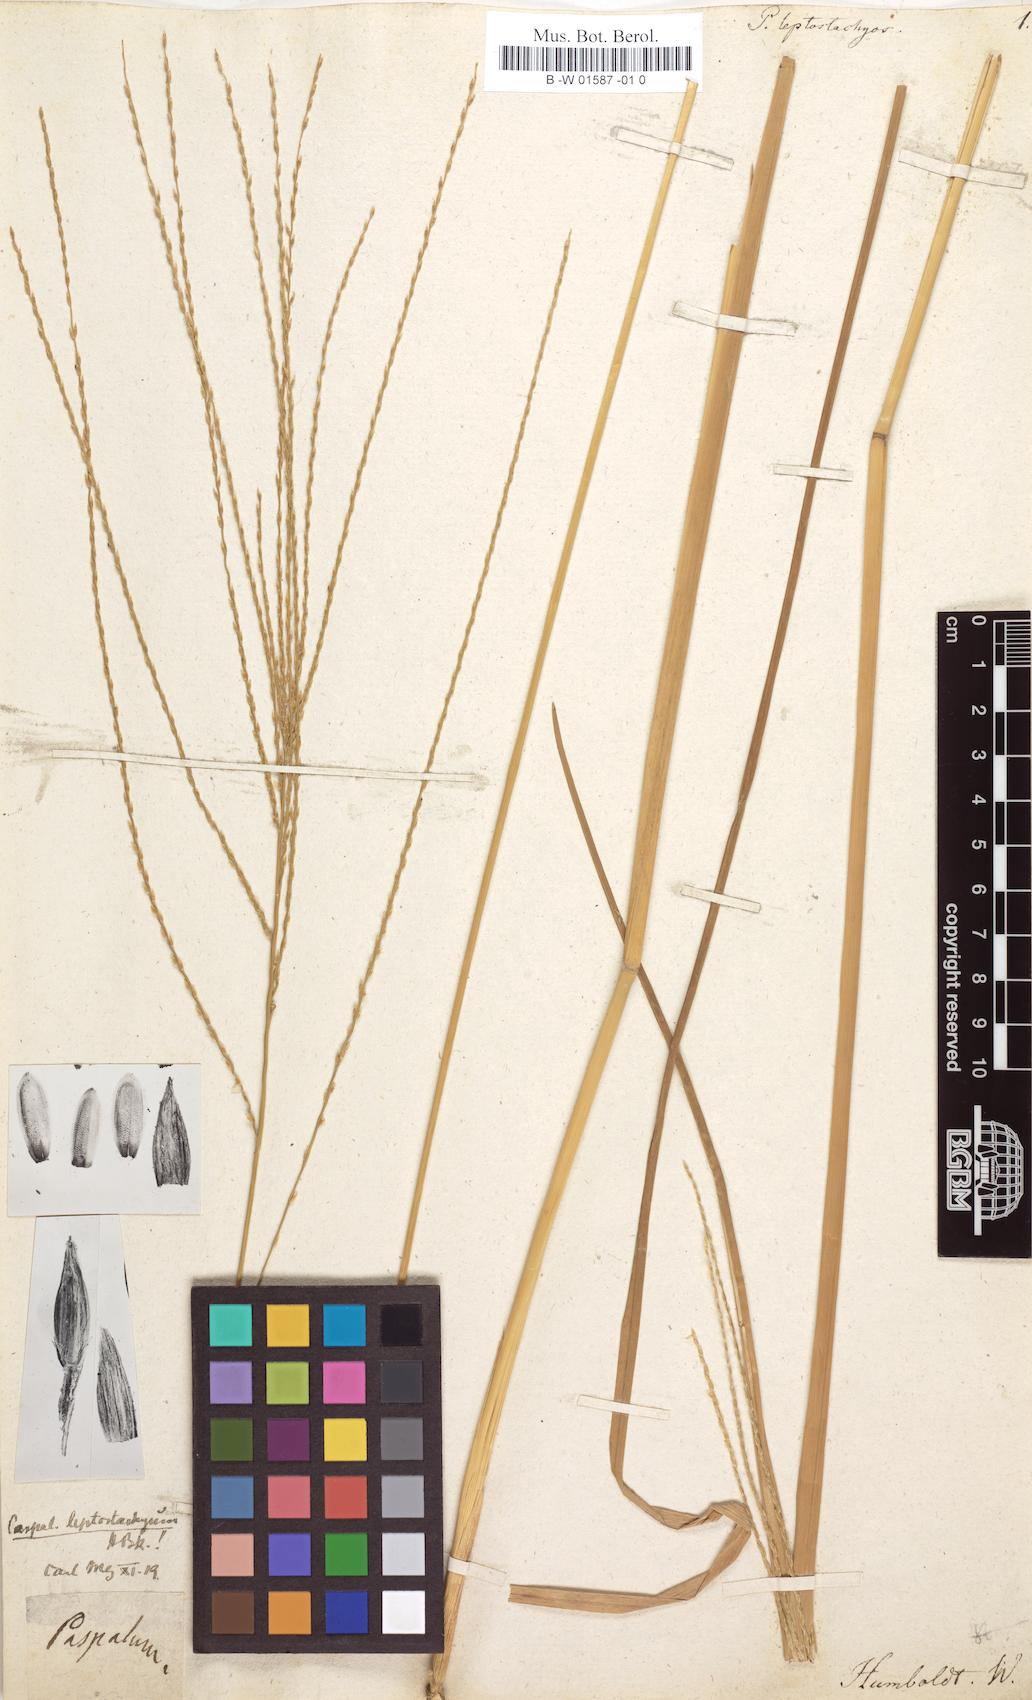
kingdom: Plantae
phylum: Tracheophyta
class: Liliopsida
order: Poales
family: Poaceae
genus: Axonopus
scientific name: Axonopus leptostachyus
